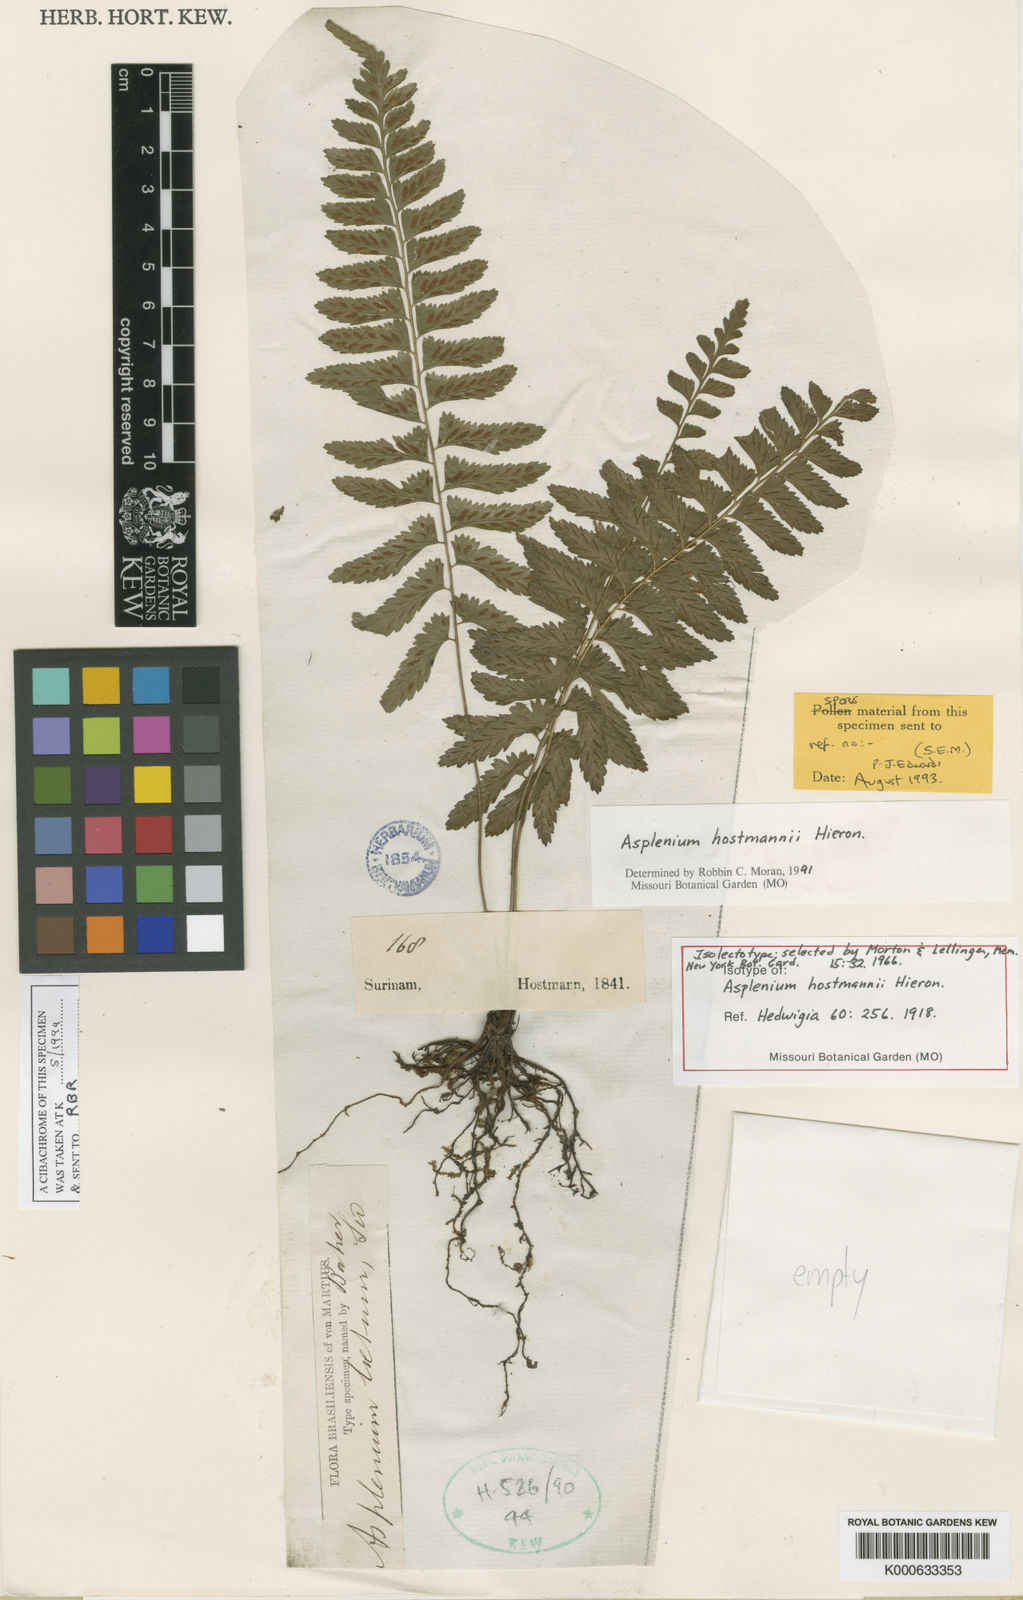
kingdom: Plantae
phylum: Tracheophyta
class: Polypodiopsida
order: Polypodiales
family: Aspleniaceae
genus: Asplenium
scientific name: Asplenium hostmannii
